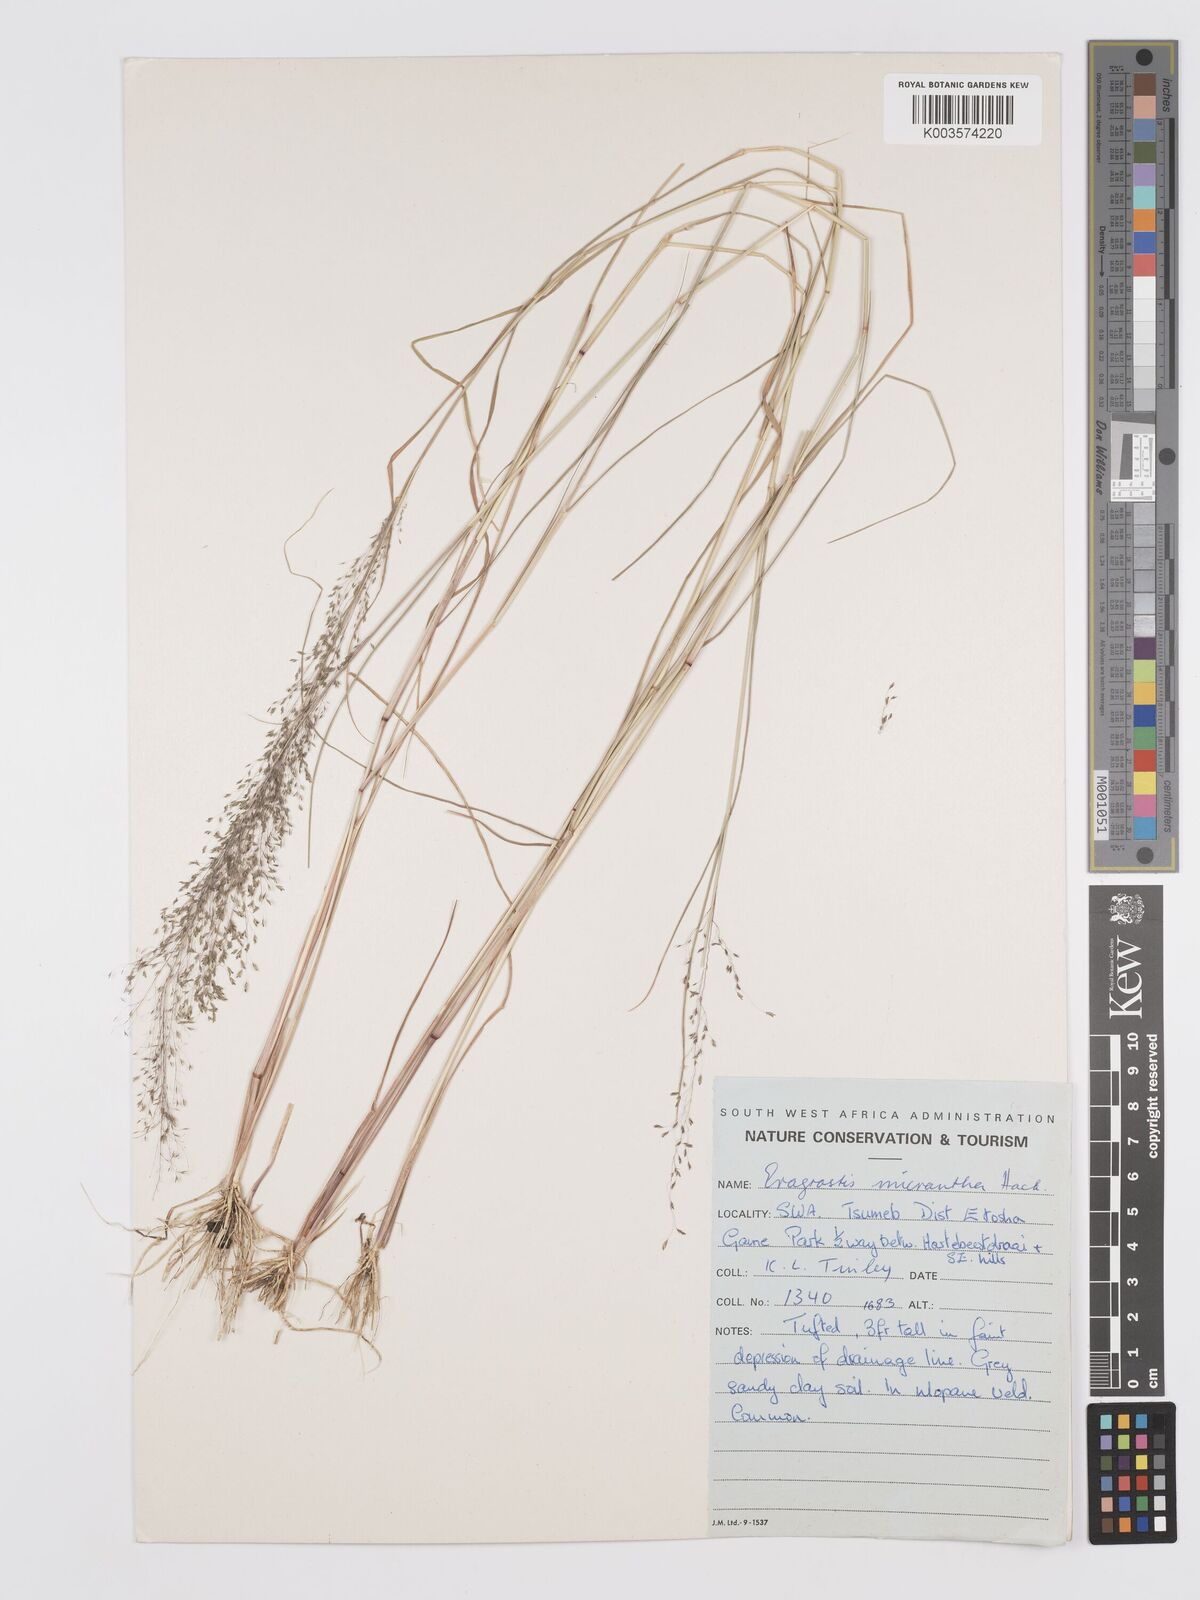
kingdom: Plantae
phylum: Tracheophyta
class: Liliopsida
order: Poales
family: Poaceae
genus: Eragrostis
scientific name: Eragrostis micrantha
